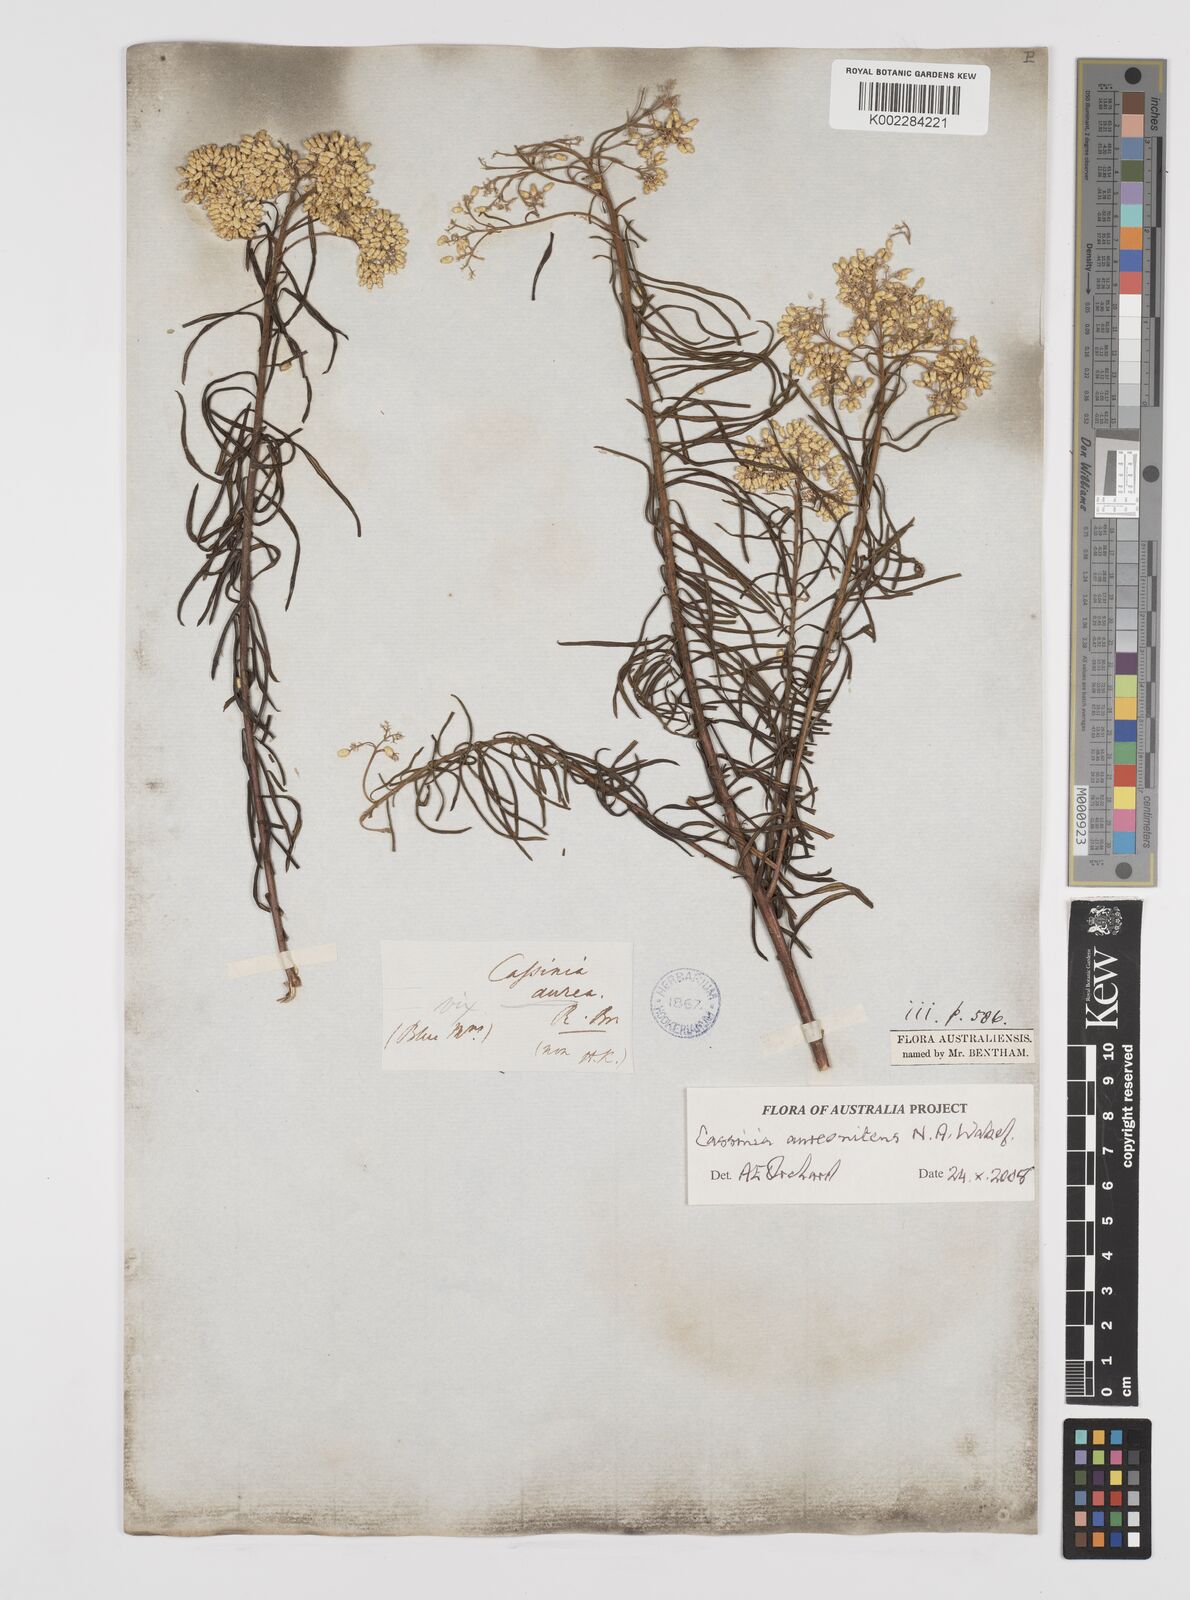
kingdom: Plantae
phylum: Tracheophyta
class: Magnoliopsida
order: Asterales
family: Asteraceae
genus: Cassinia
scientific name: Cassinia aureonitens
